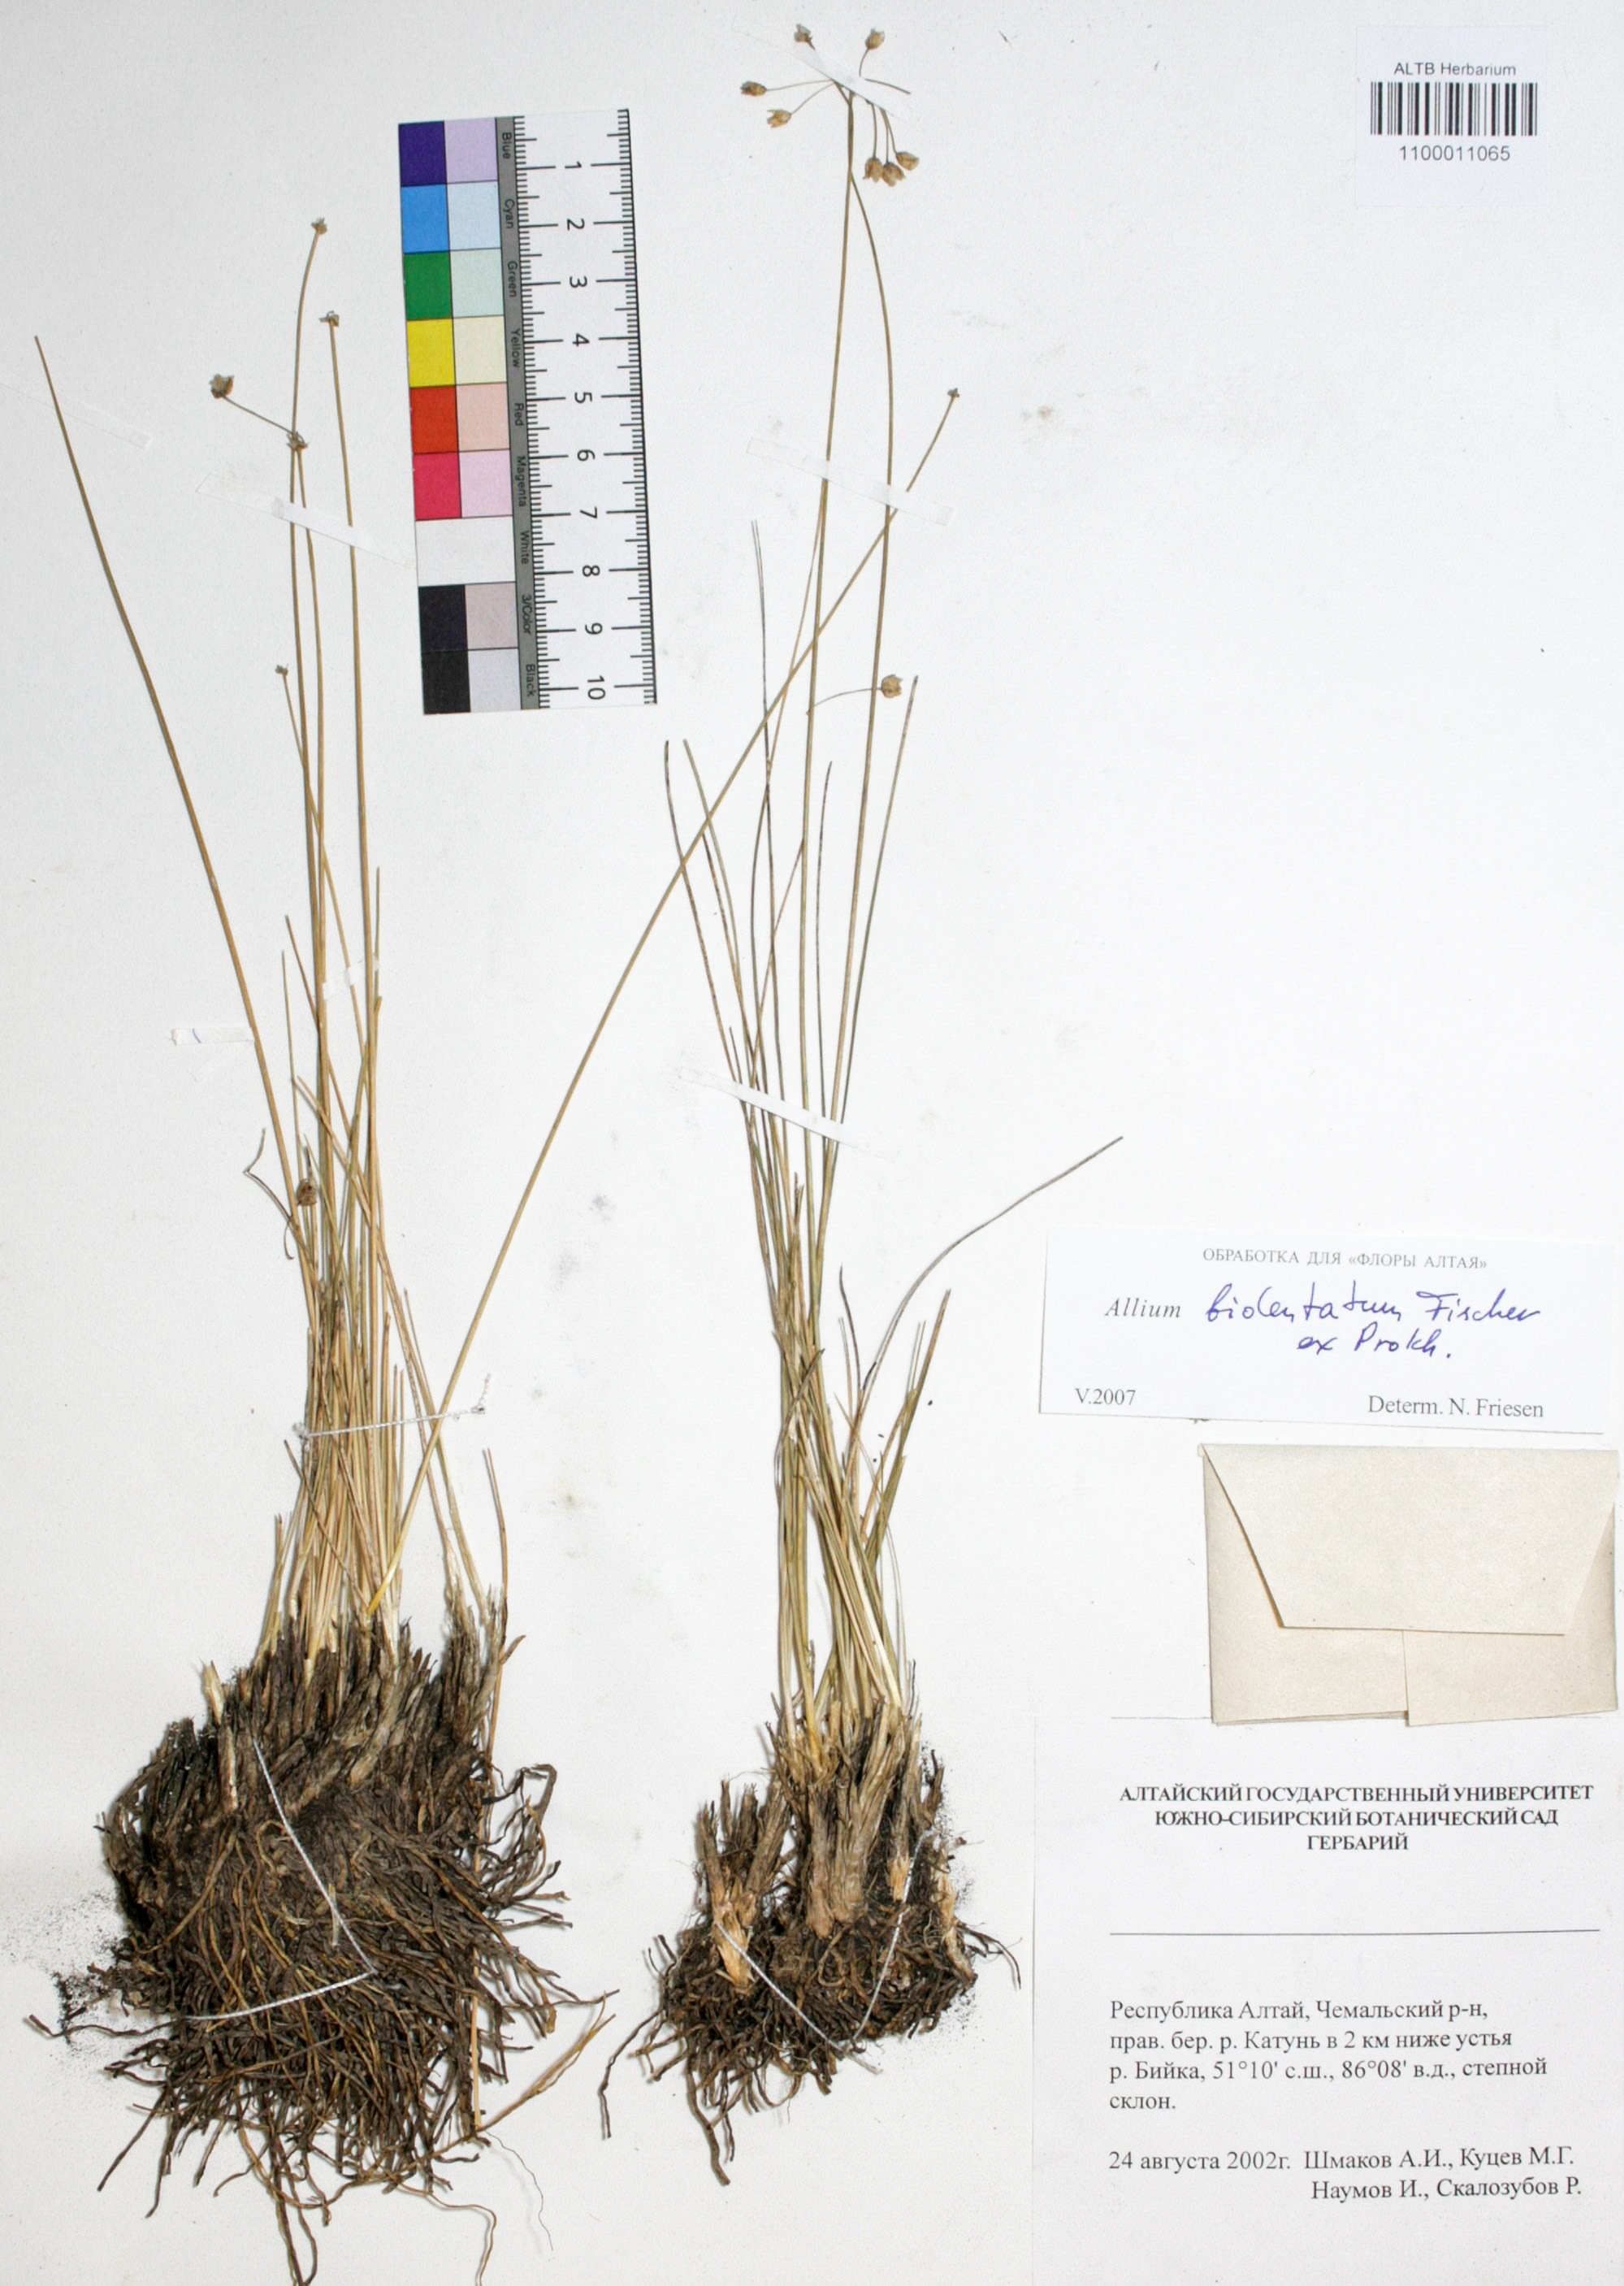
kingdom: Plantae
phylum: Tracheophyta
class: Liliopsida
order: Asparagales
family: Amaryllidaceae
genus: Allium
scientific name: Allium bidentatum
